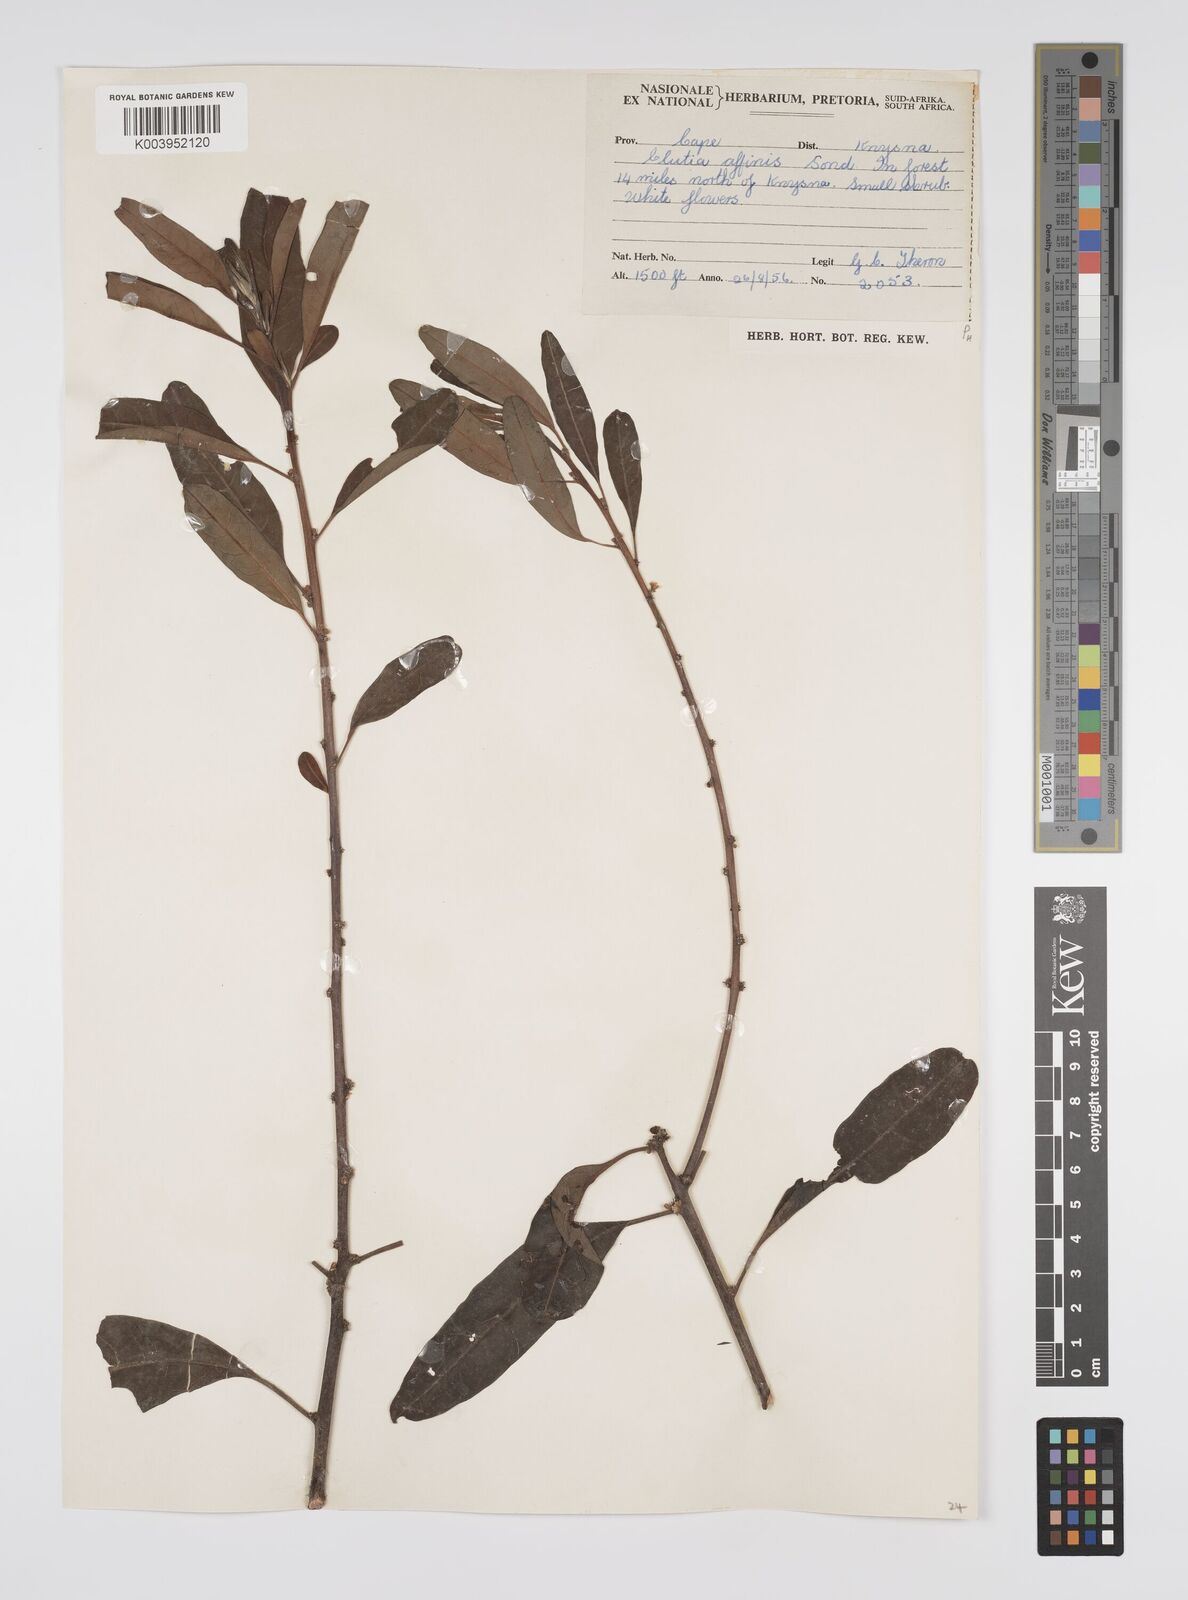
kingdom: Plantae
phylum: Tracheophyta
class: Magnoliopsida
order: Malpighiales
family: Peraceae
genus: Clutia
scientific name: Clutia affinis
